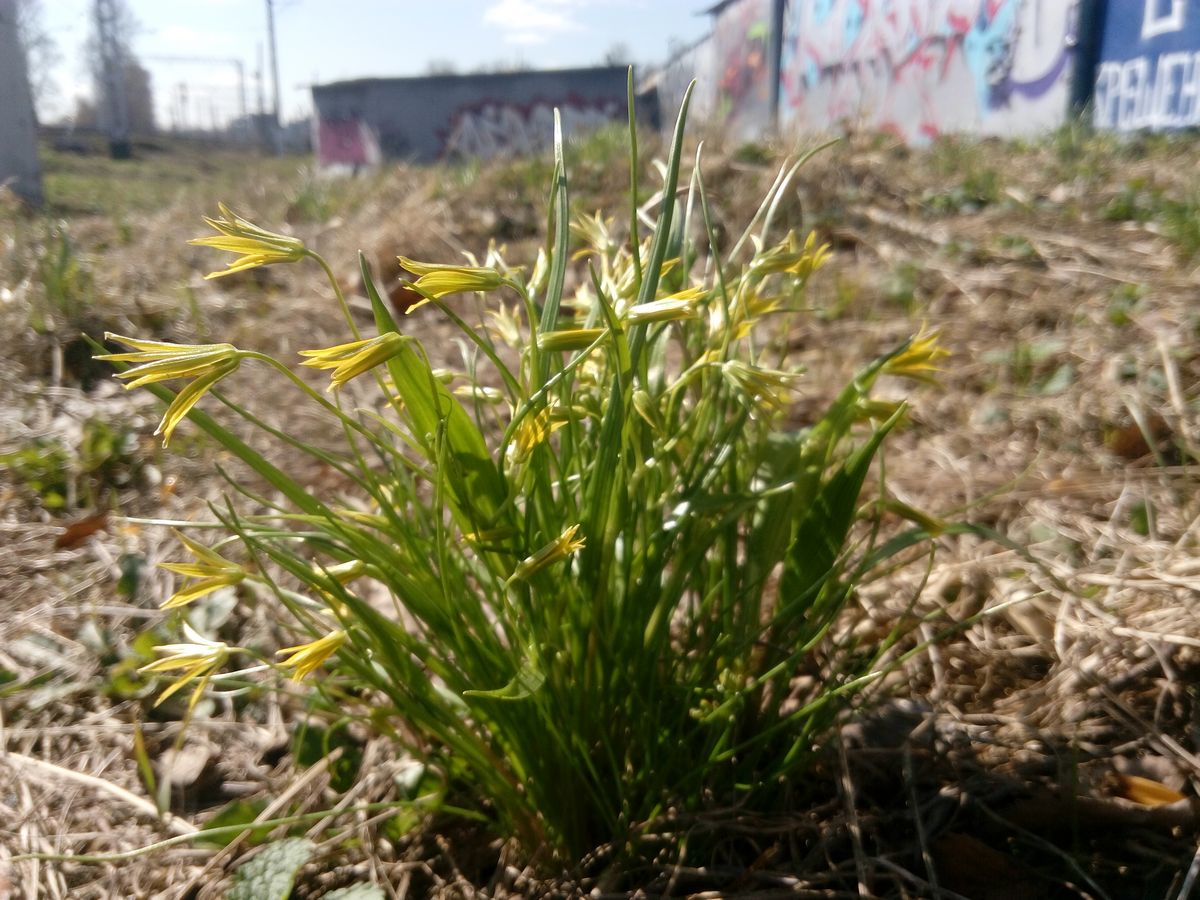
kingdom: Plantae
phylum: Tracheophyta
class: Liliopsida
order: Liliales
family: Liliaceae
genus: Gagea
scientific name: Gagea minima
